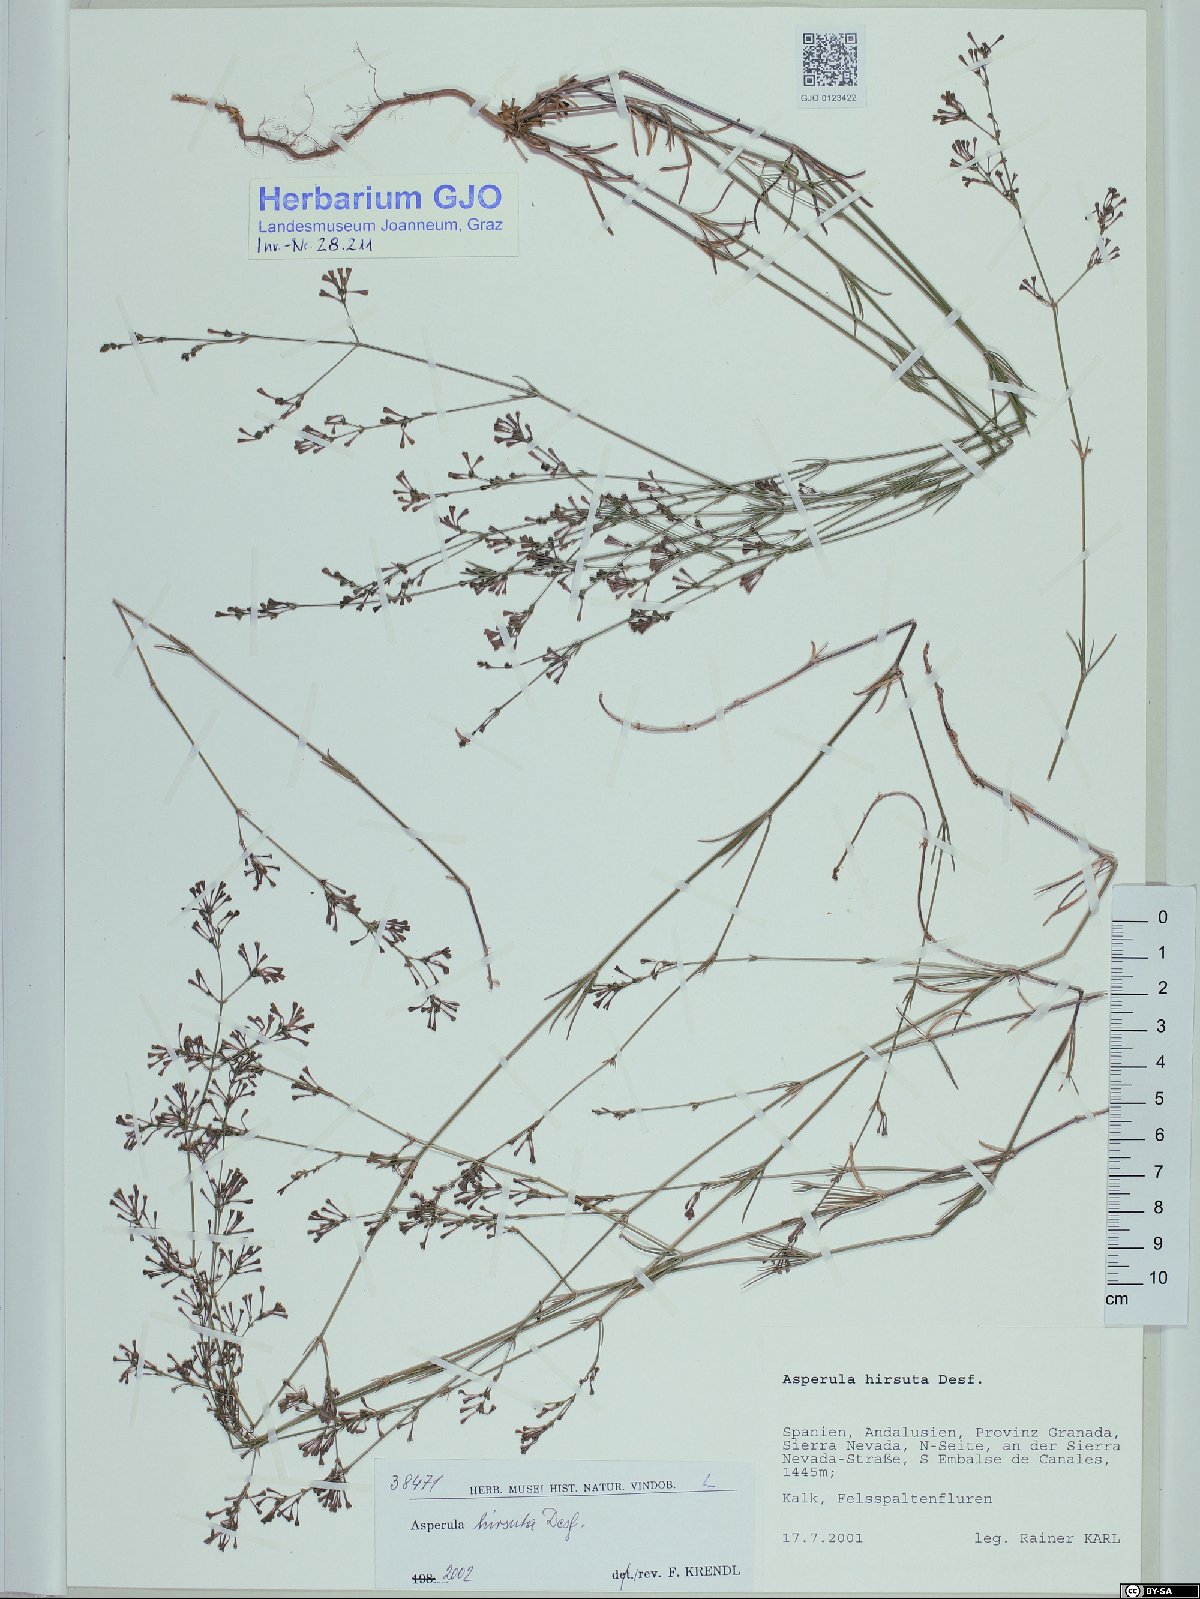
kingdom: Plantae
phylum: Tracheophyta
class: Magnoliopsida
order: Gentianales
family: Rubiaceae
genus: Hexaphylla
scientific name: Hexaphylla hirsuta
